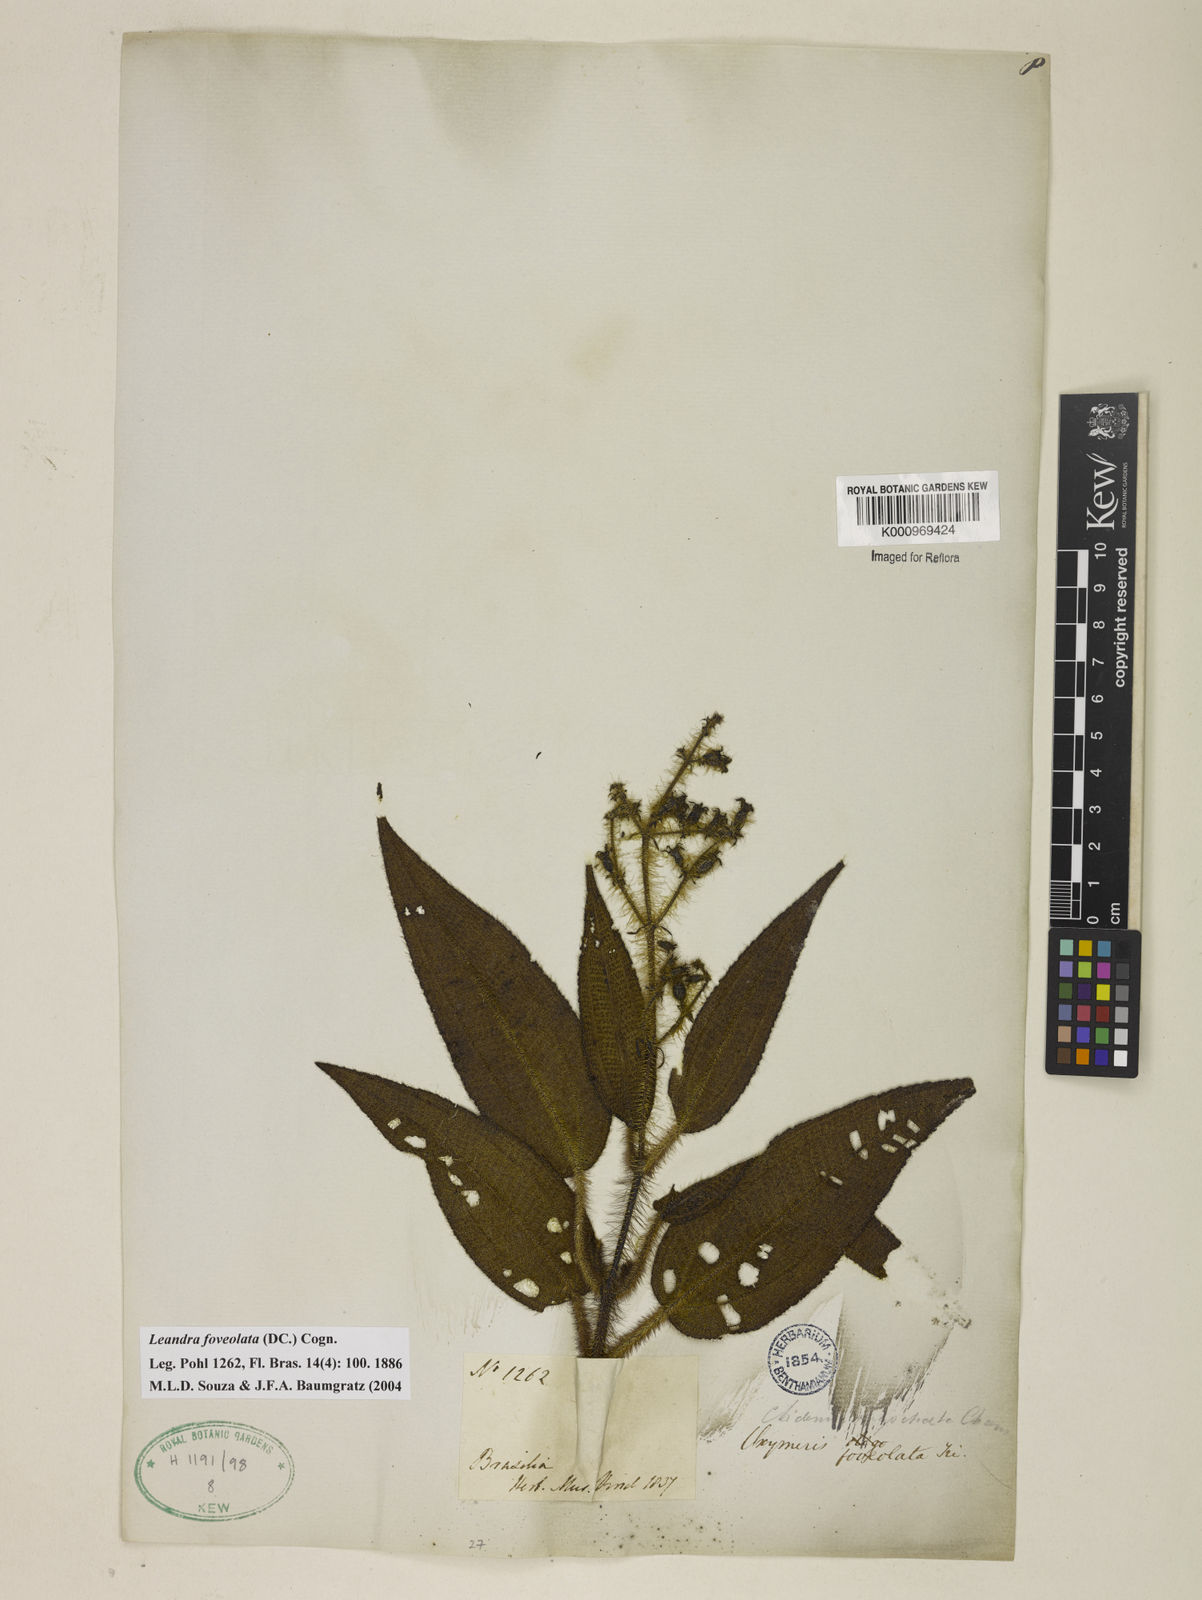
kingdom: Plantae
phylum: Tracheophyta
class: Magnoliopsida
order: Myrtales
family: Melastomataceae
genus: Miconia
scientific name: Miconia leafoveolata
